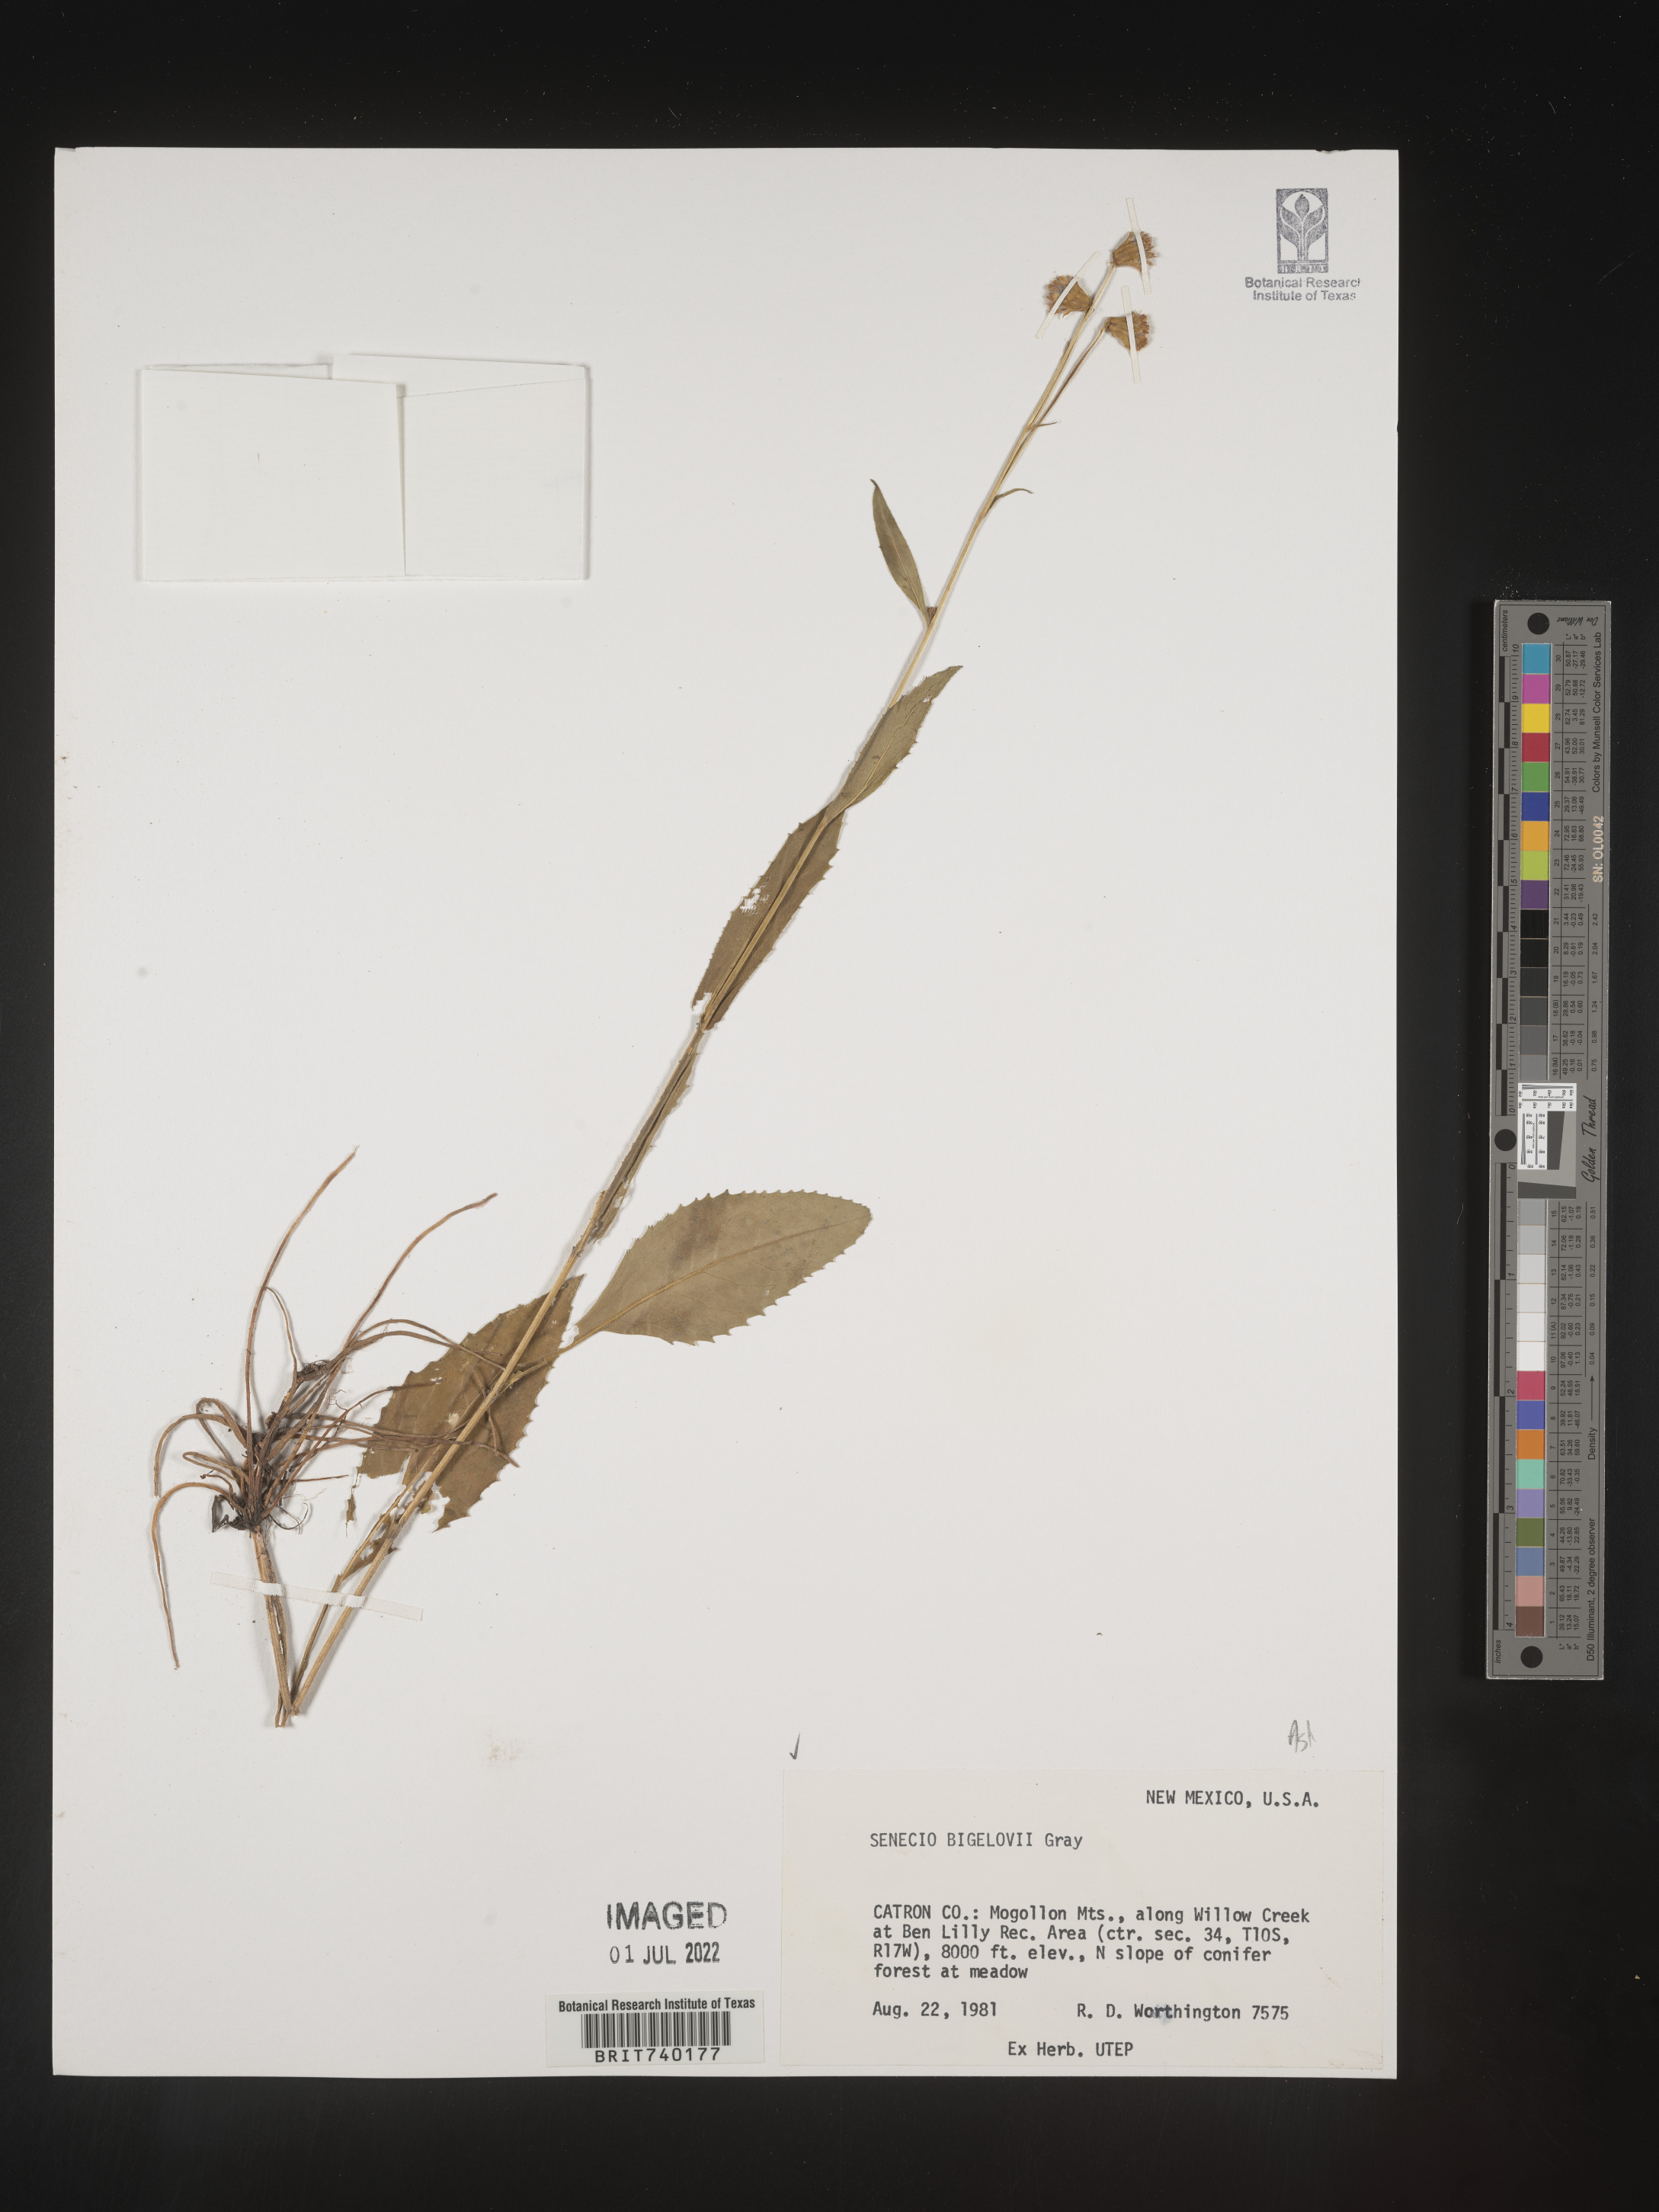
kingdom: Plantae
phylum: Tracheophyta
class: Magnoliopsida
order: Asterales
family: Asteraceae
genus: Senecio
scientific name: Senecio bigelovii
